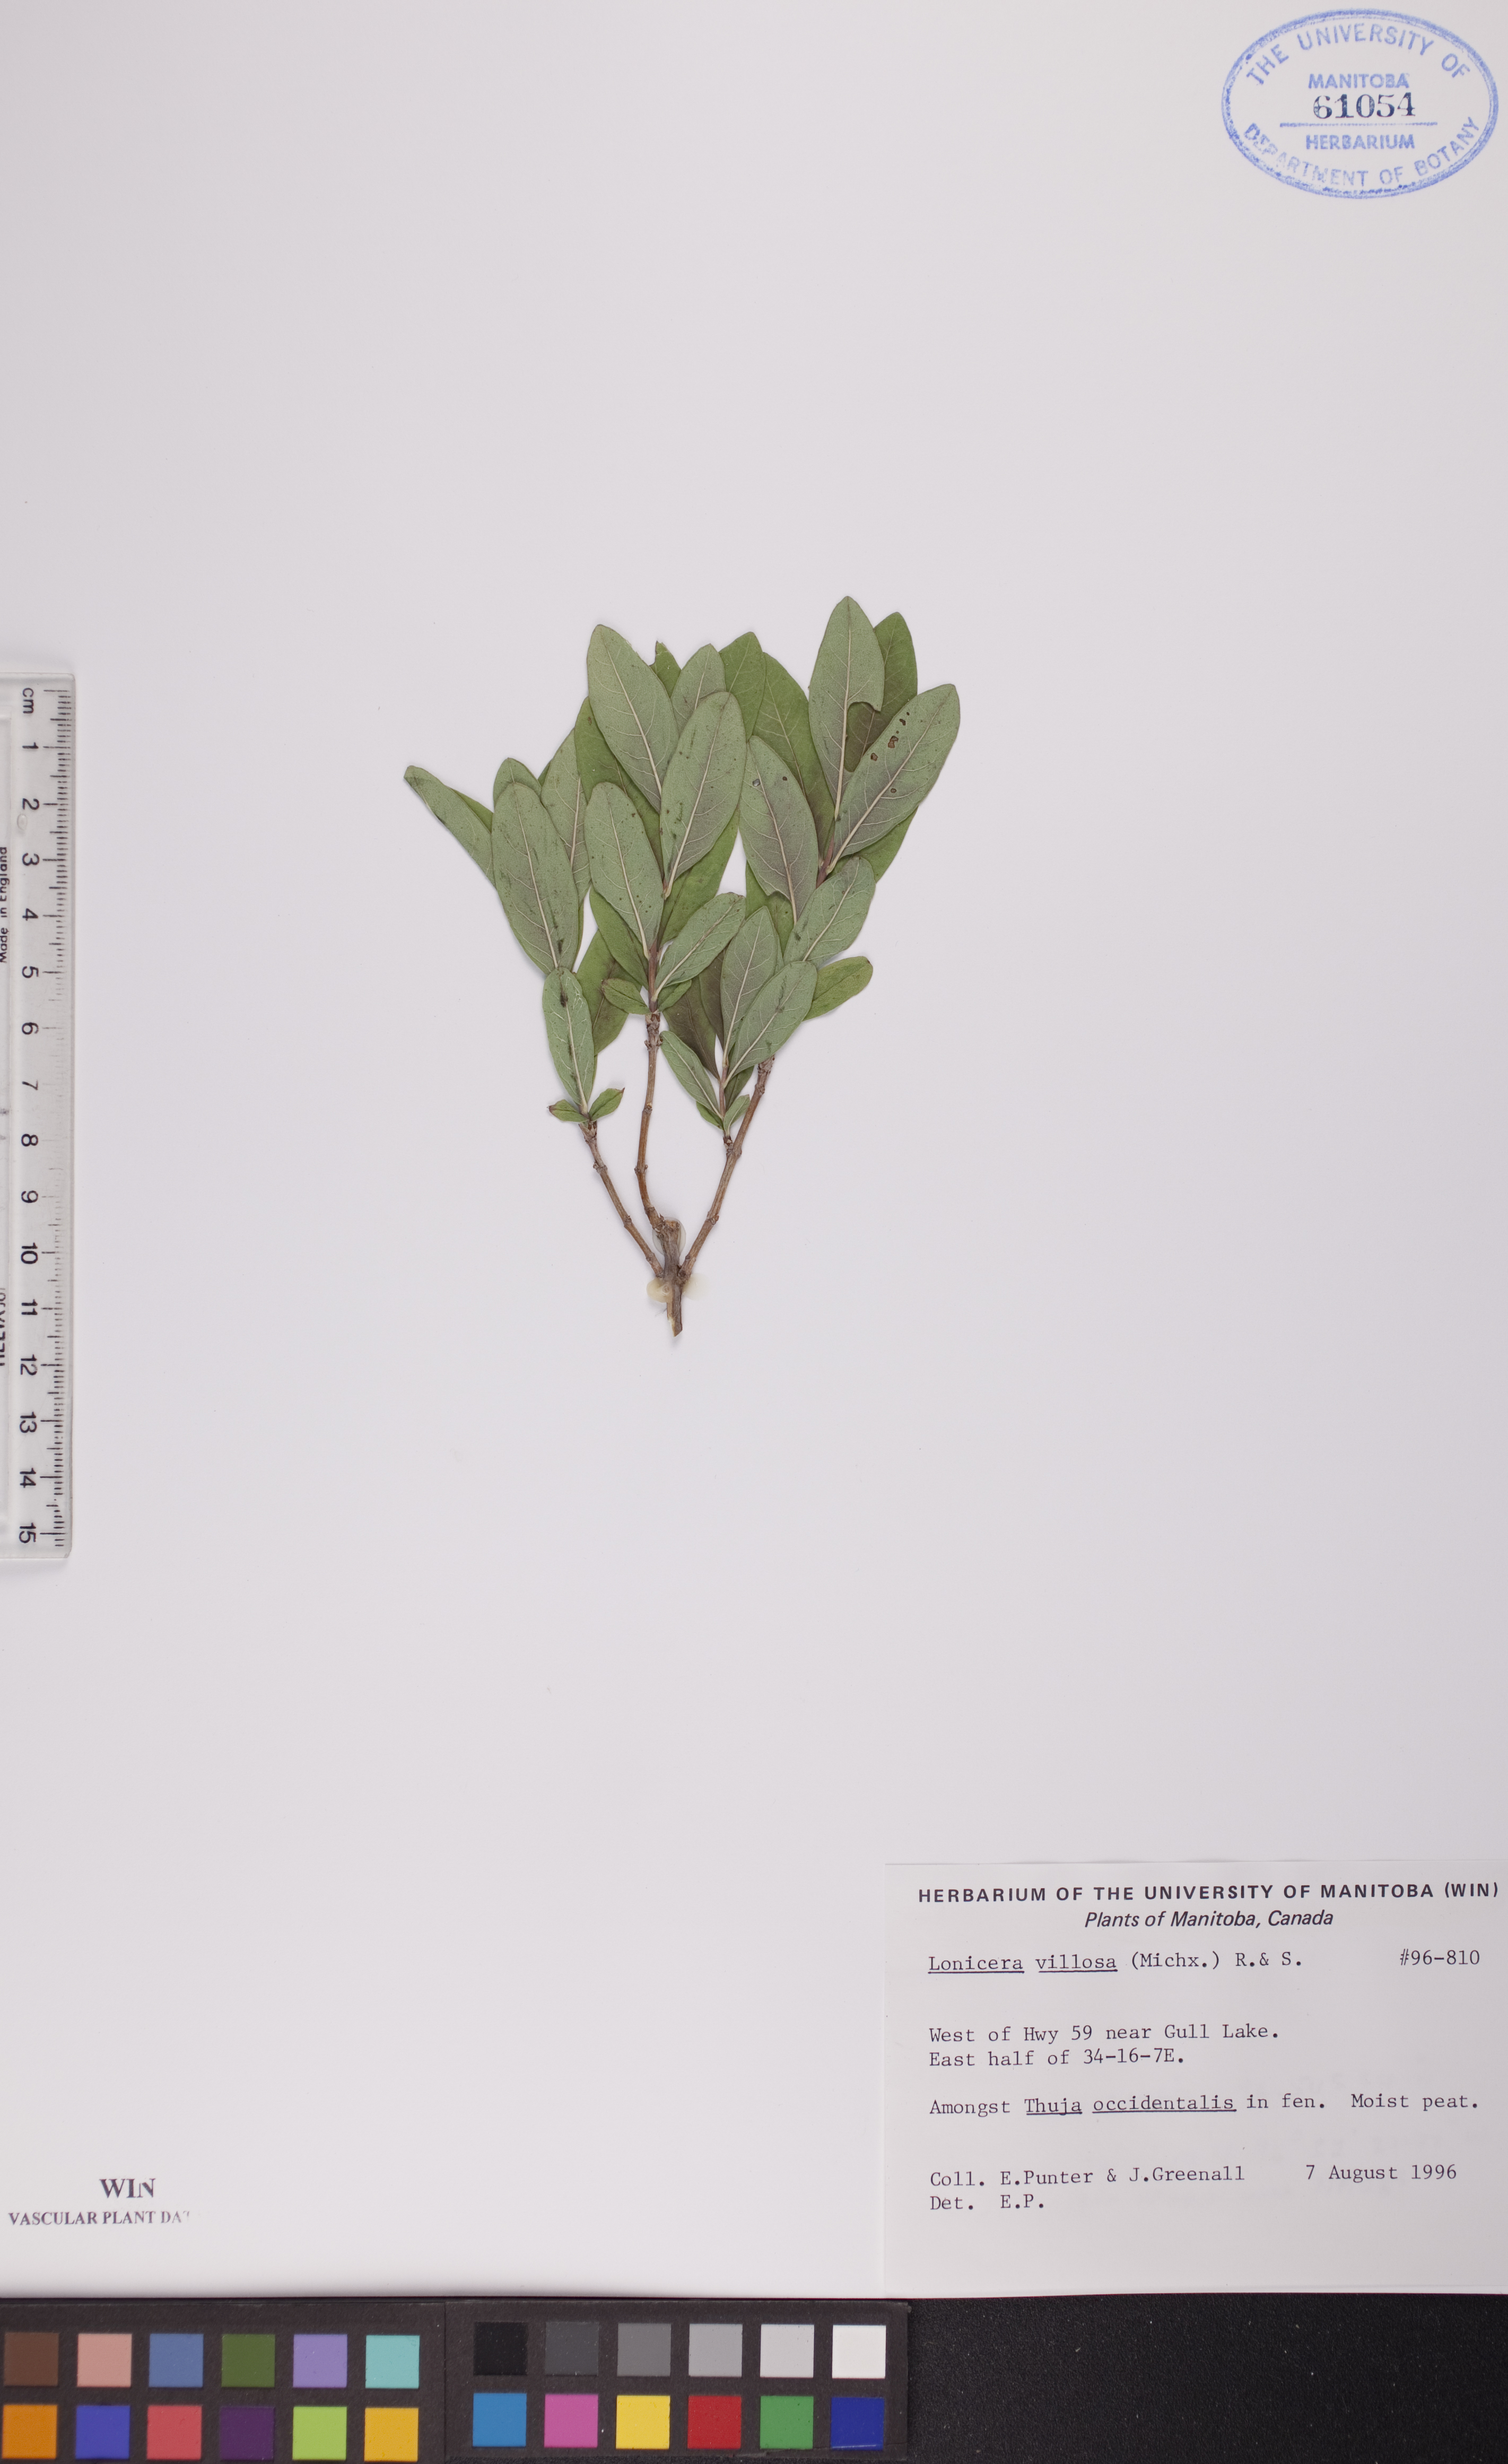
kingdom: Plantae
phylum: Tracheophyta
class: Magnoliopsida
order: Dipsacales
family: Caprifoliaceae
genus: Lonicera
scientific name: Lonicera villosa
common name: Mountain fly-honeysuckle
